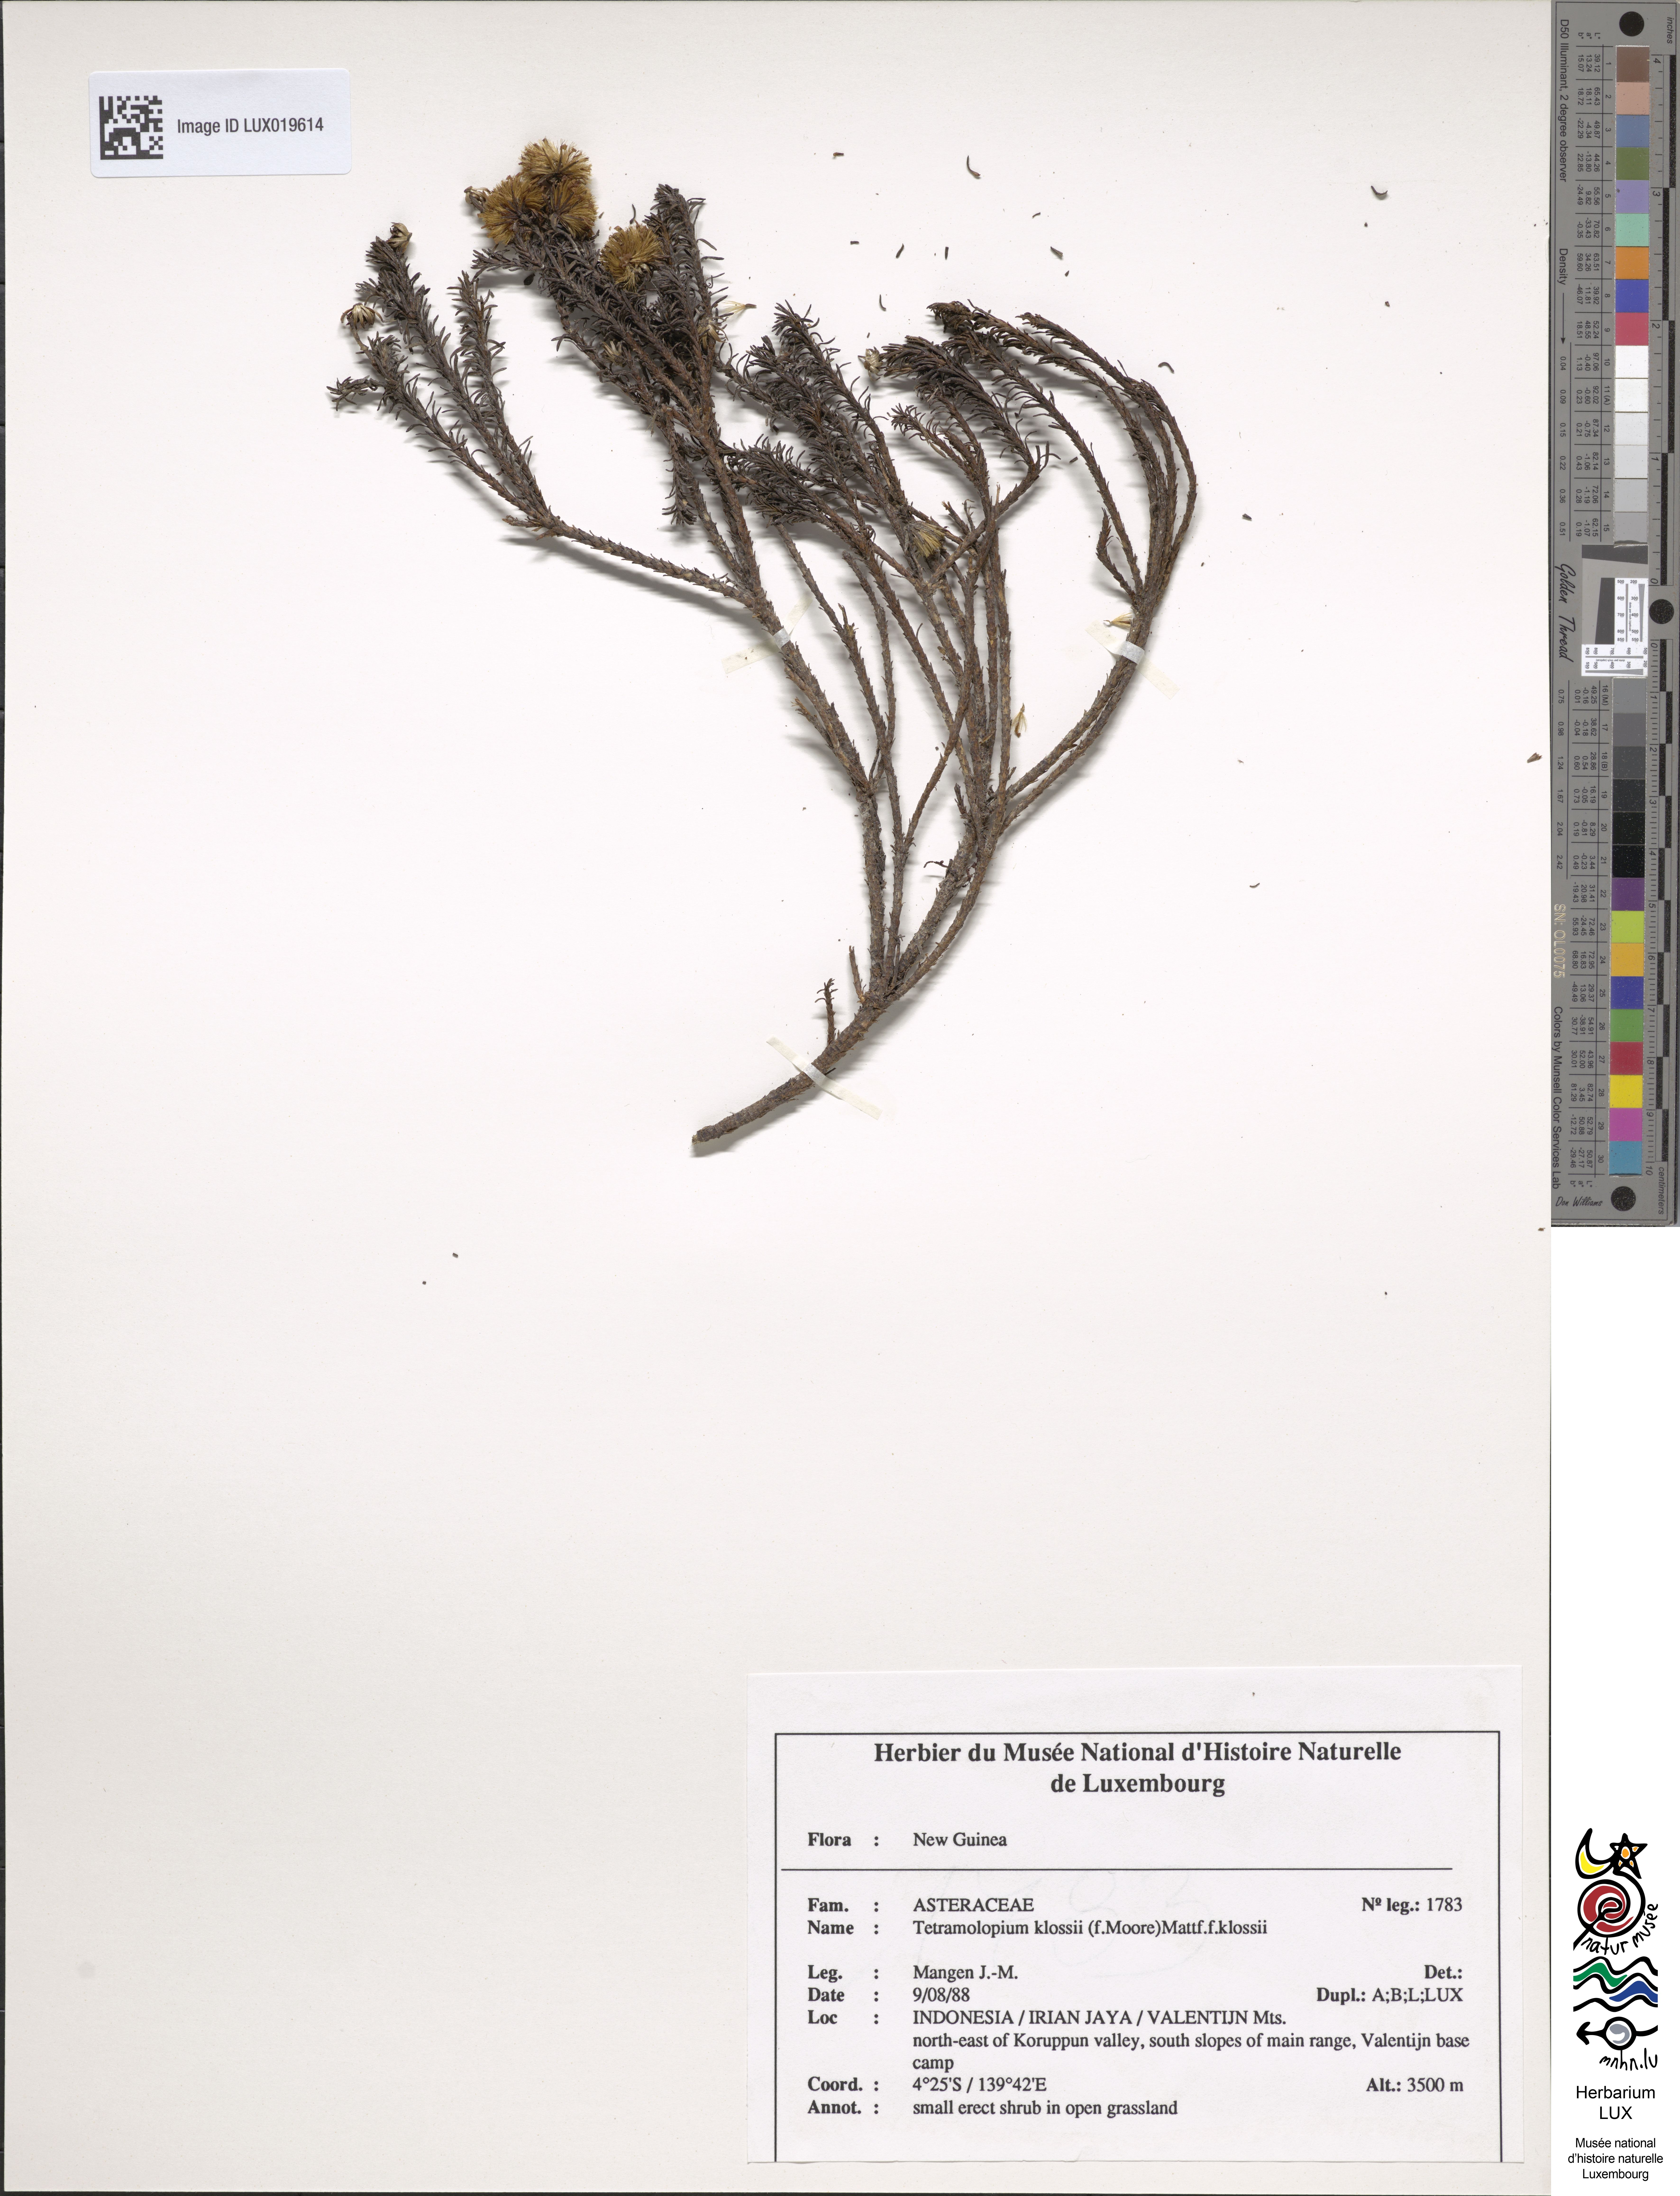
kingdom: Plantae
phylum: Tracheophyta
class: Magnoliopsida
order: Asterales
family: Asteraceae
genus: Tetramolopium
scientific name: Tetramolopium klossii
